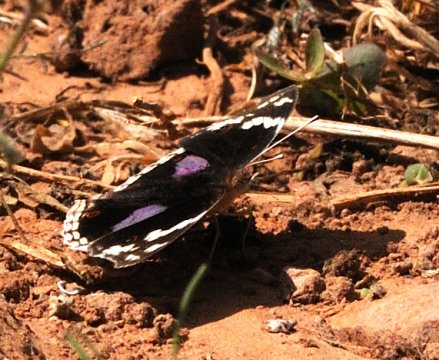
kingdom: Animalia
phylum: Arthropoda
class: Insecta
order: Lepidoptera
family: Nymphalidae
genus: Junonia
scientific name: Junonia oenone
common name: Dark blue pansy
